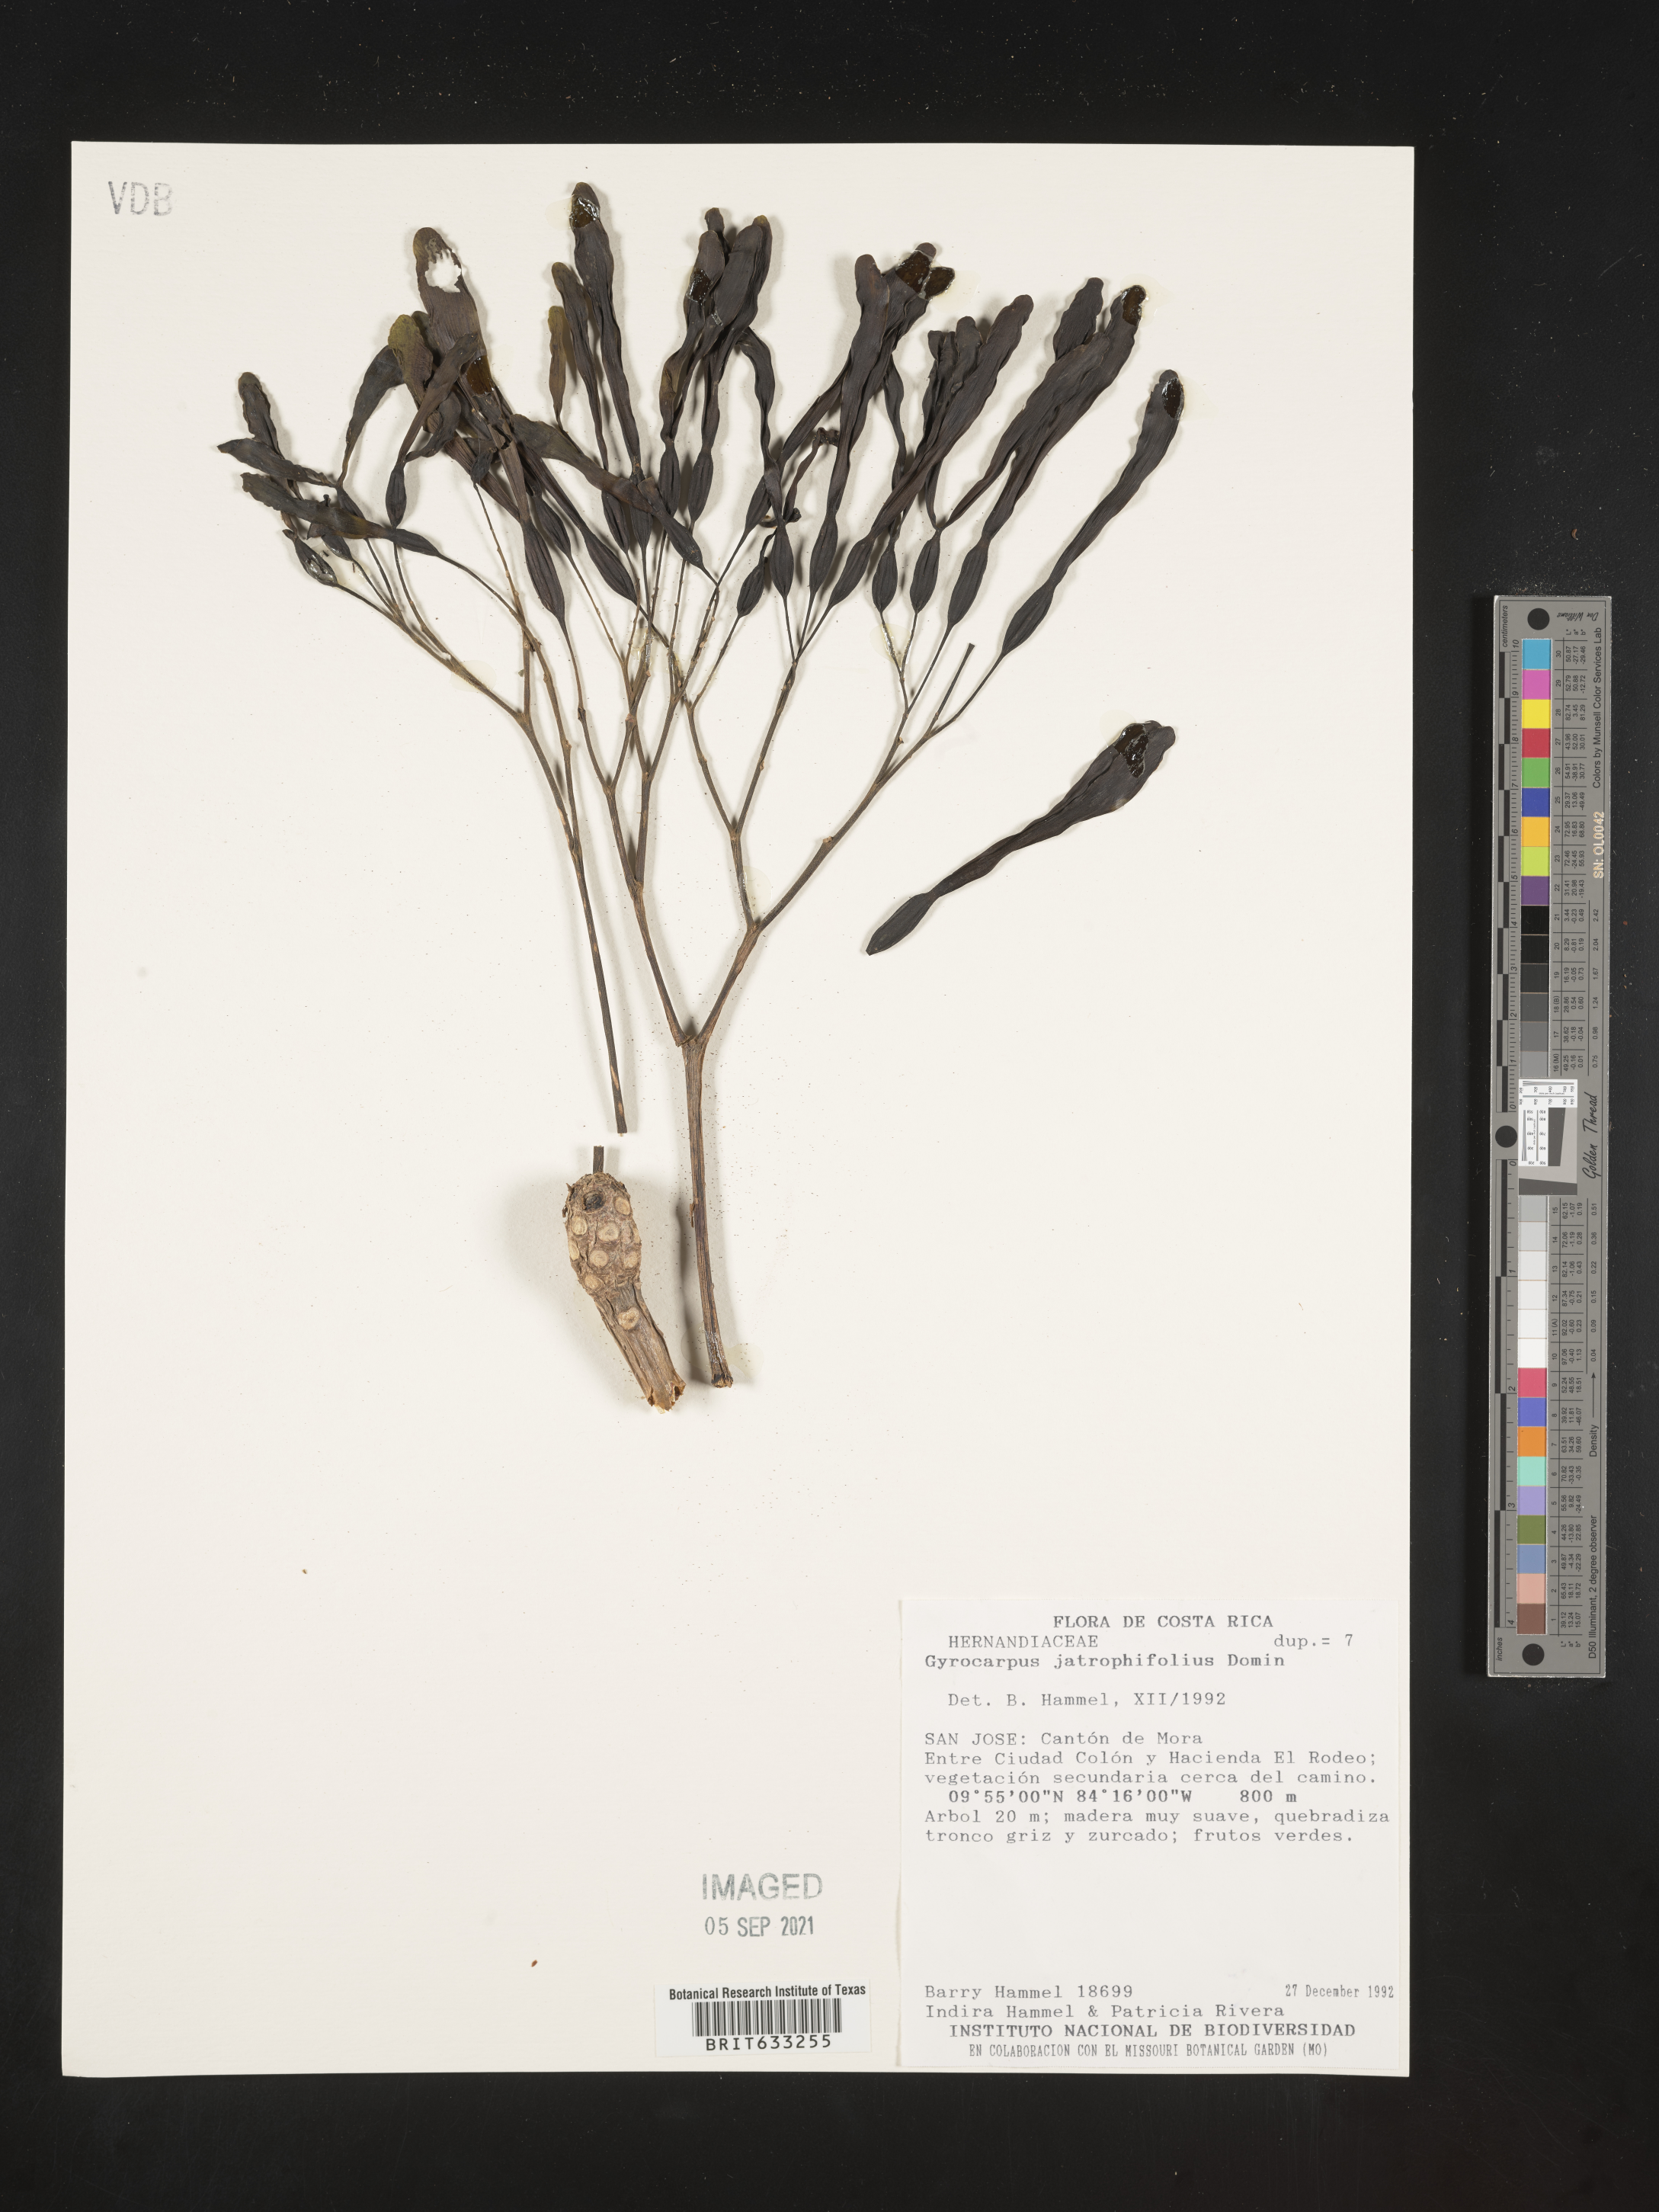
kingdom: Plantae
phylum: Tracheophyta
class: Magnoliopsida
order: Laurales
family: Hernandiaceae
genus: Gyrocarpus
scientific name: Gyrocarpus
